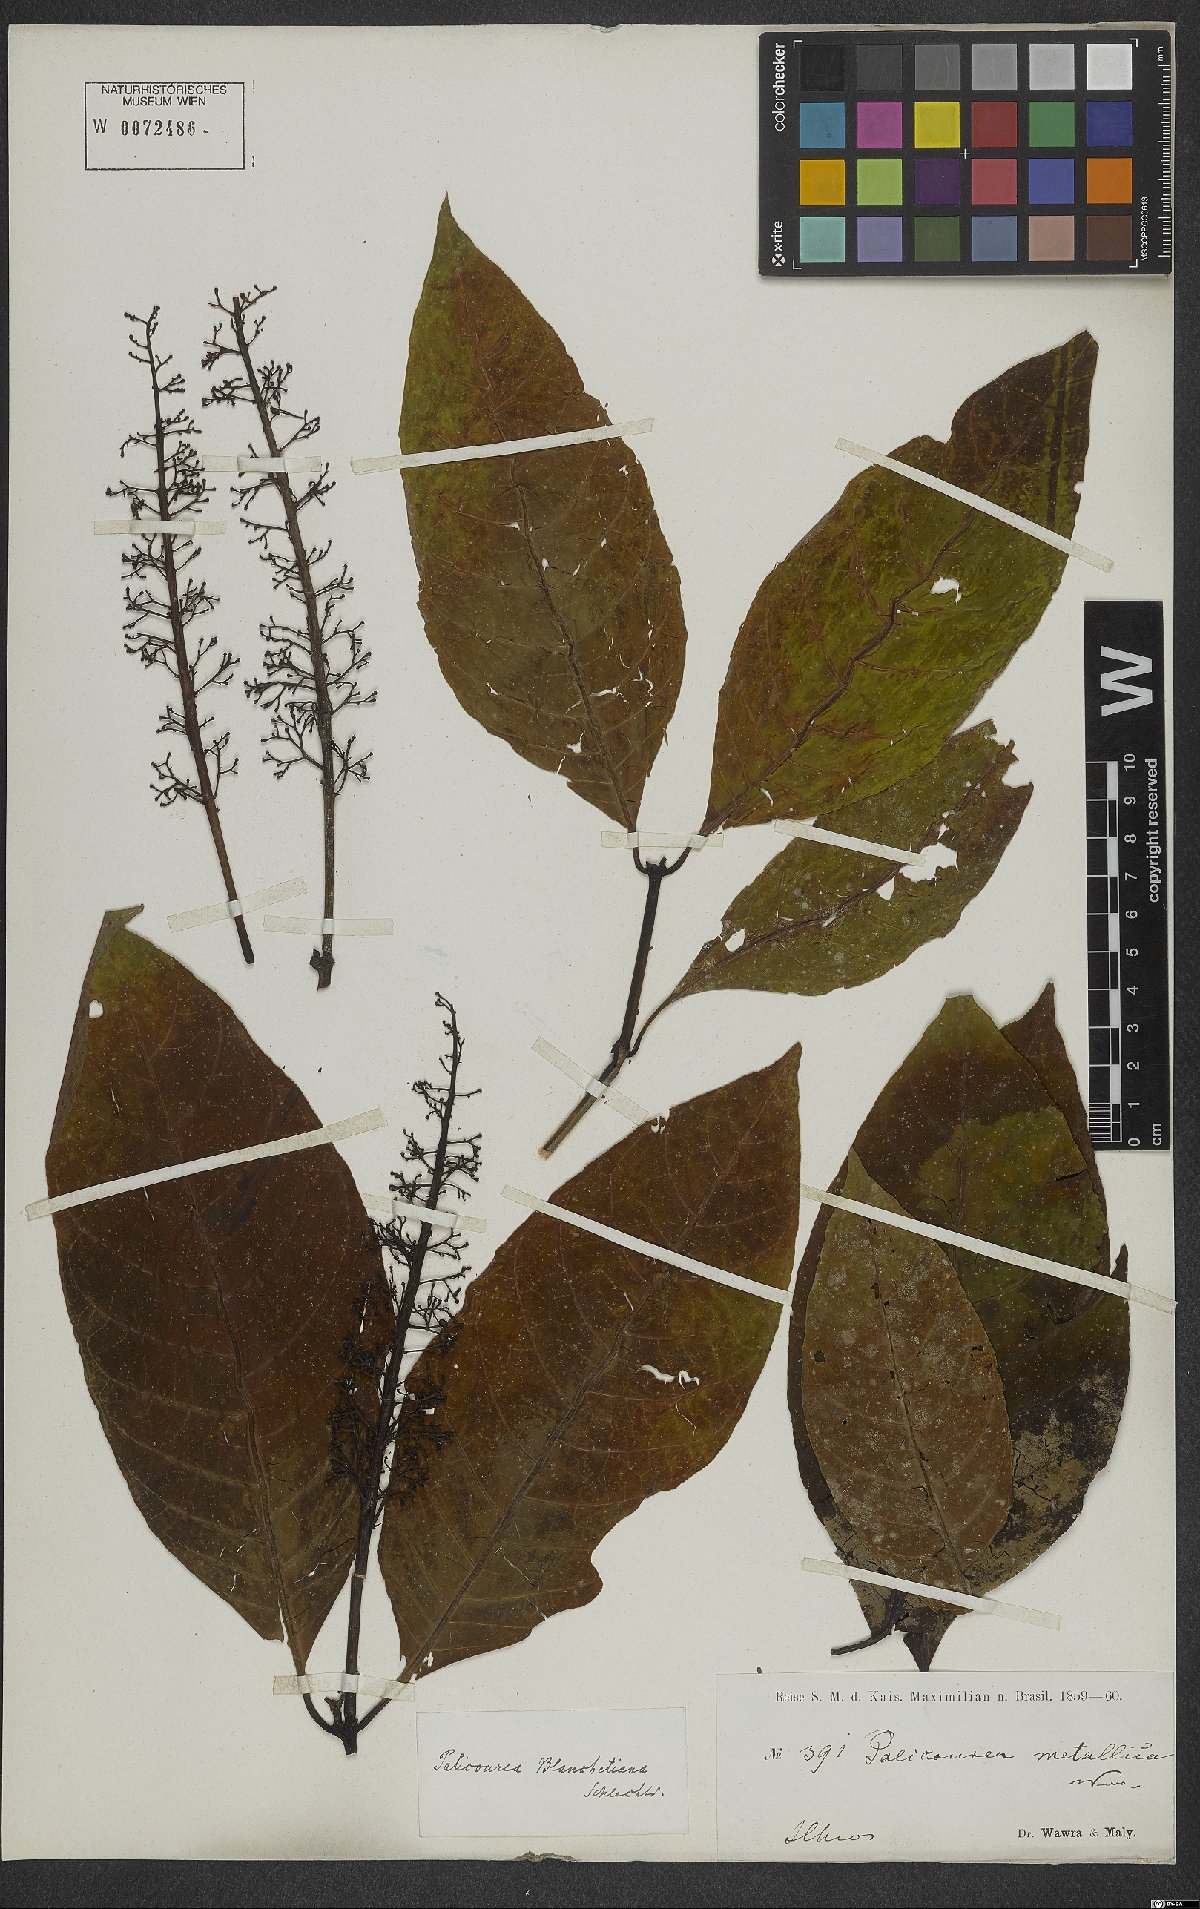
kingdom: Plantae
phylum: Tracheophyta
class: Magnoliopsida
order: Gentianales
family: Rubiaceae
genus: Palicourea
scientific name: Palicourea blanchetiana
